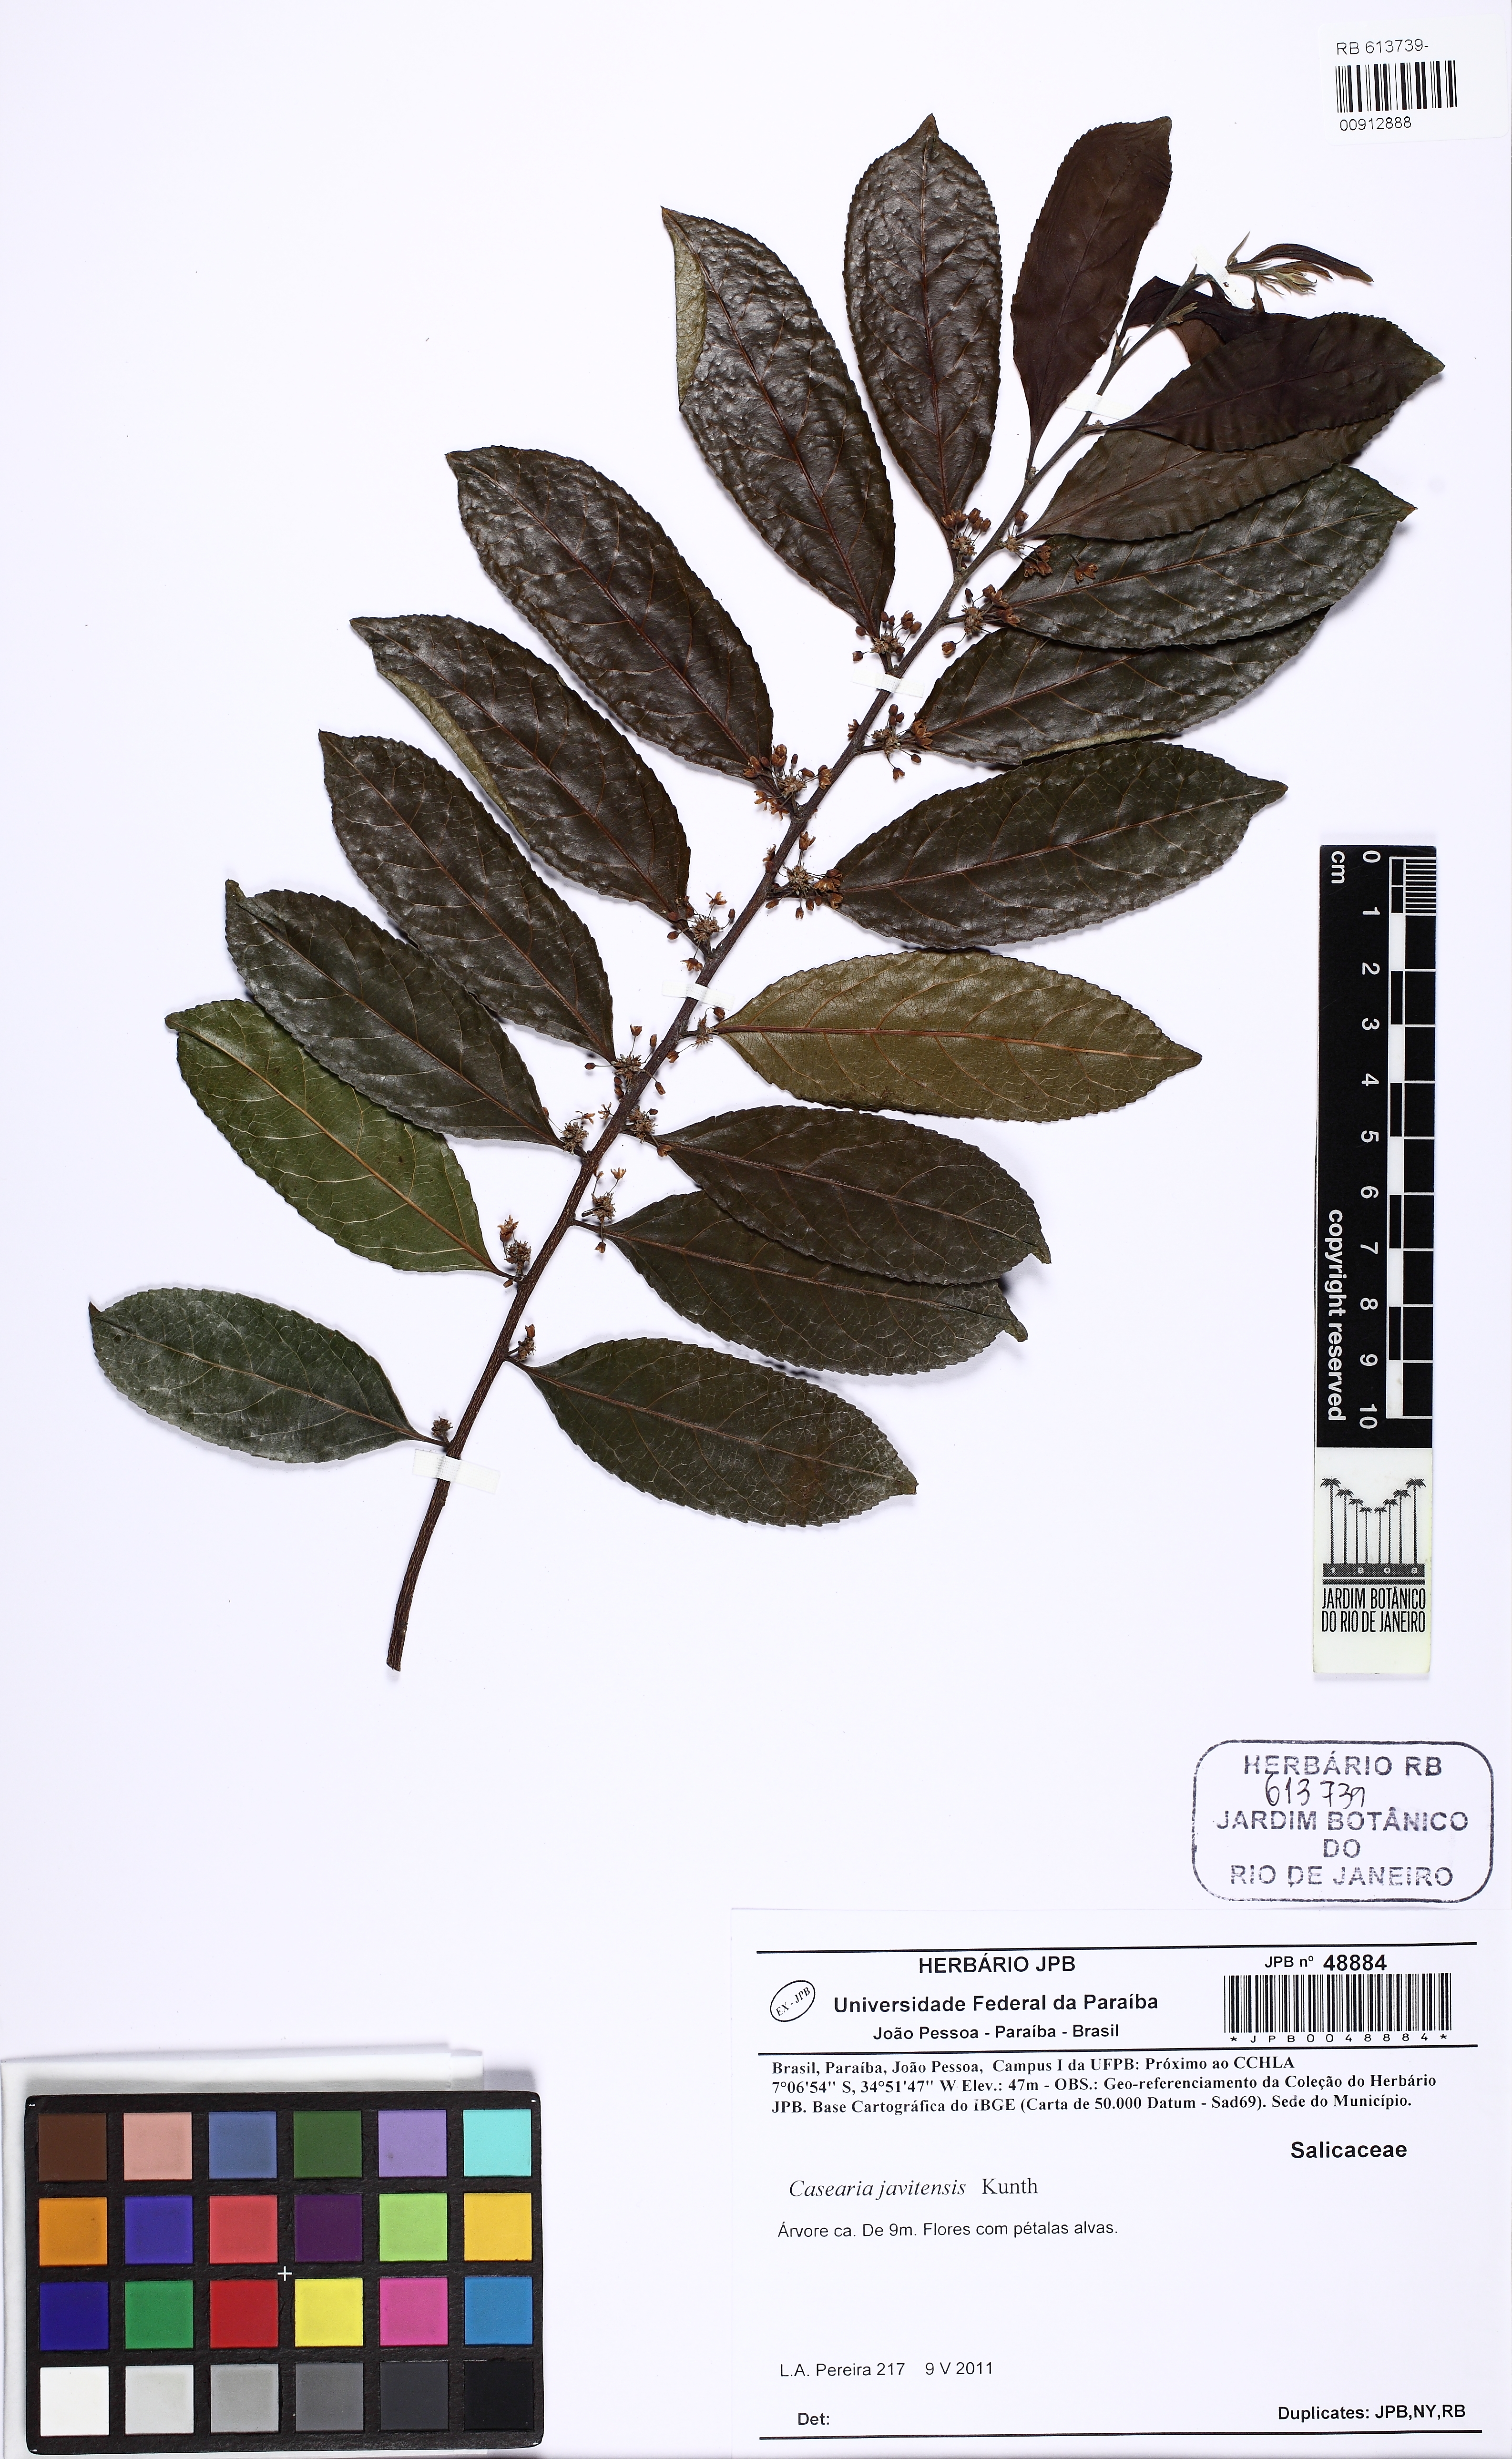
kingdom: Plantae
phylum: Tracheophyta
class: Magnoliopsida
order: Malpighiales
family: Salicaceae
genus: Piparea
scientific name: Piparea multiflora
